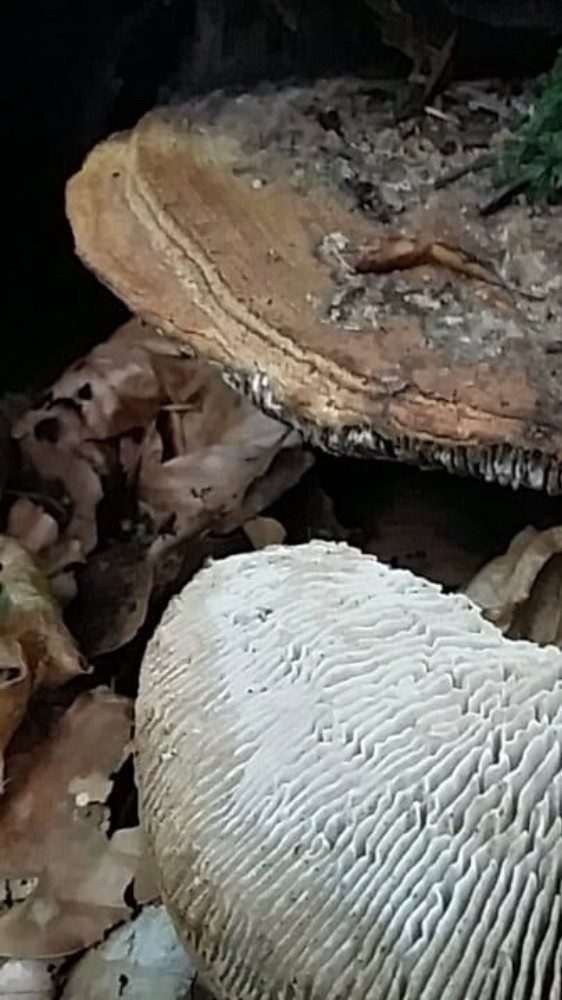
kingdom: Fungi
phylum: Basidiomycota
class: Agaricomycetes
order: Polyporales
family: Fomitopsidaceae
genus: Daedalea
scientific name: Daedalea quercina
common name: ege-labyrintsvamp
